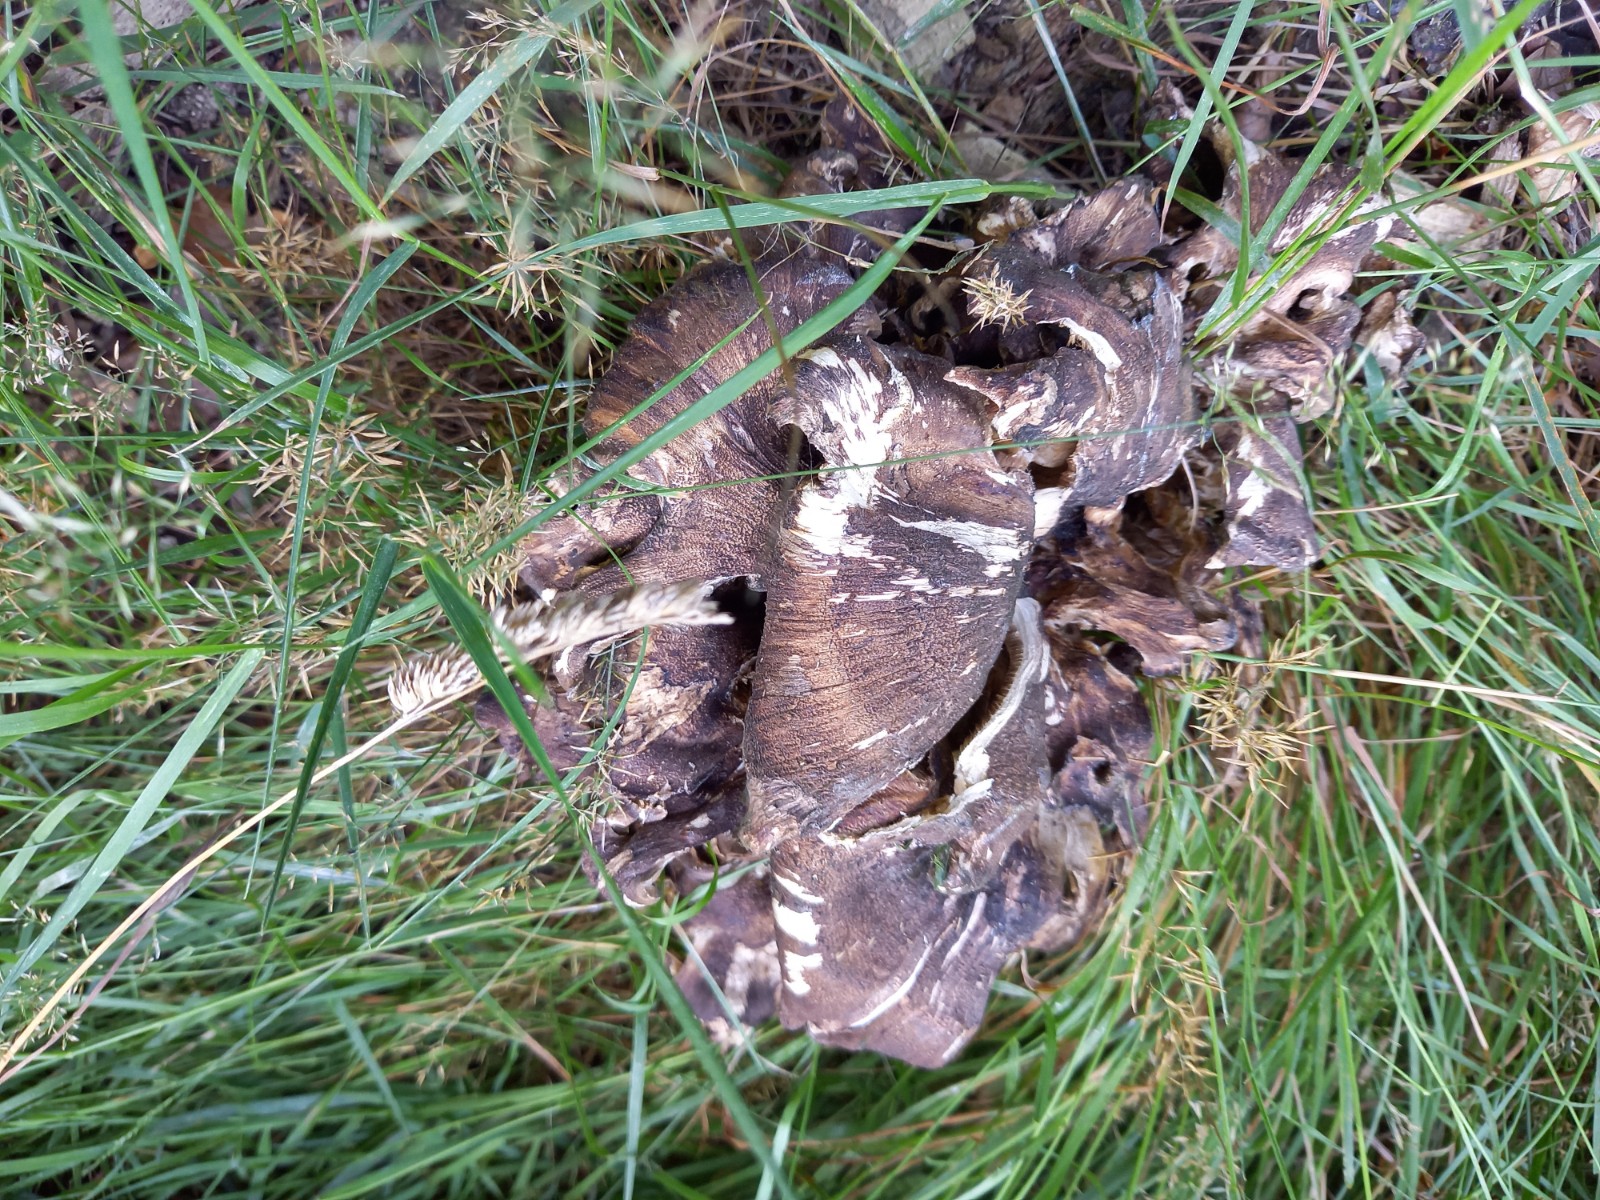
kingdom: Fungi
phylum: Basidiomycota
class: Agaricomycetes
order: Polyporales
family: Meripilaceae
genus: Meripilus
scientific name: Meripilus giganteus
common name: kæmpeporesvamp
